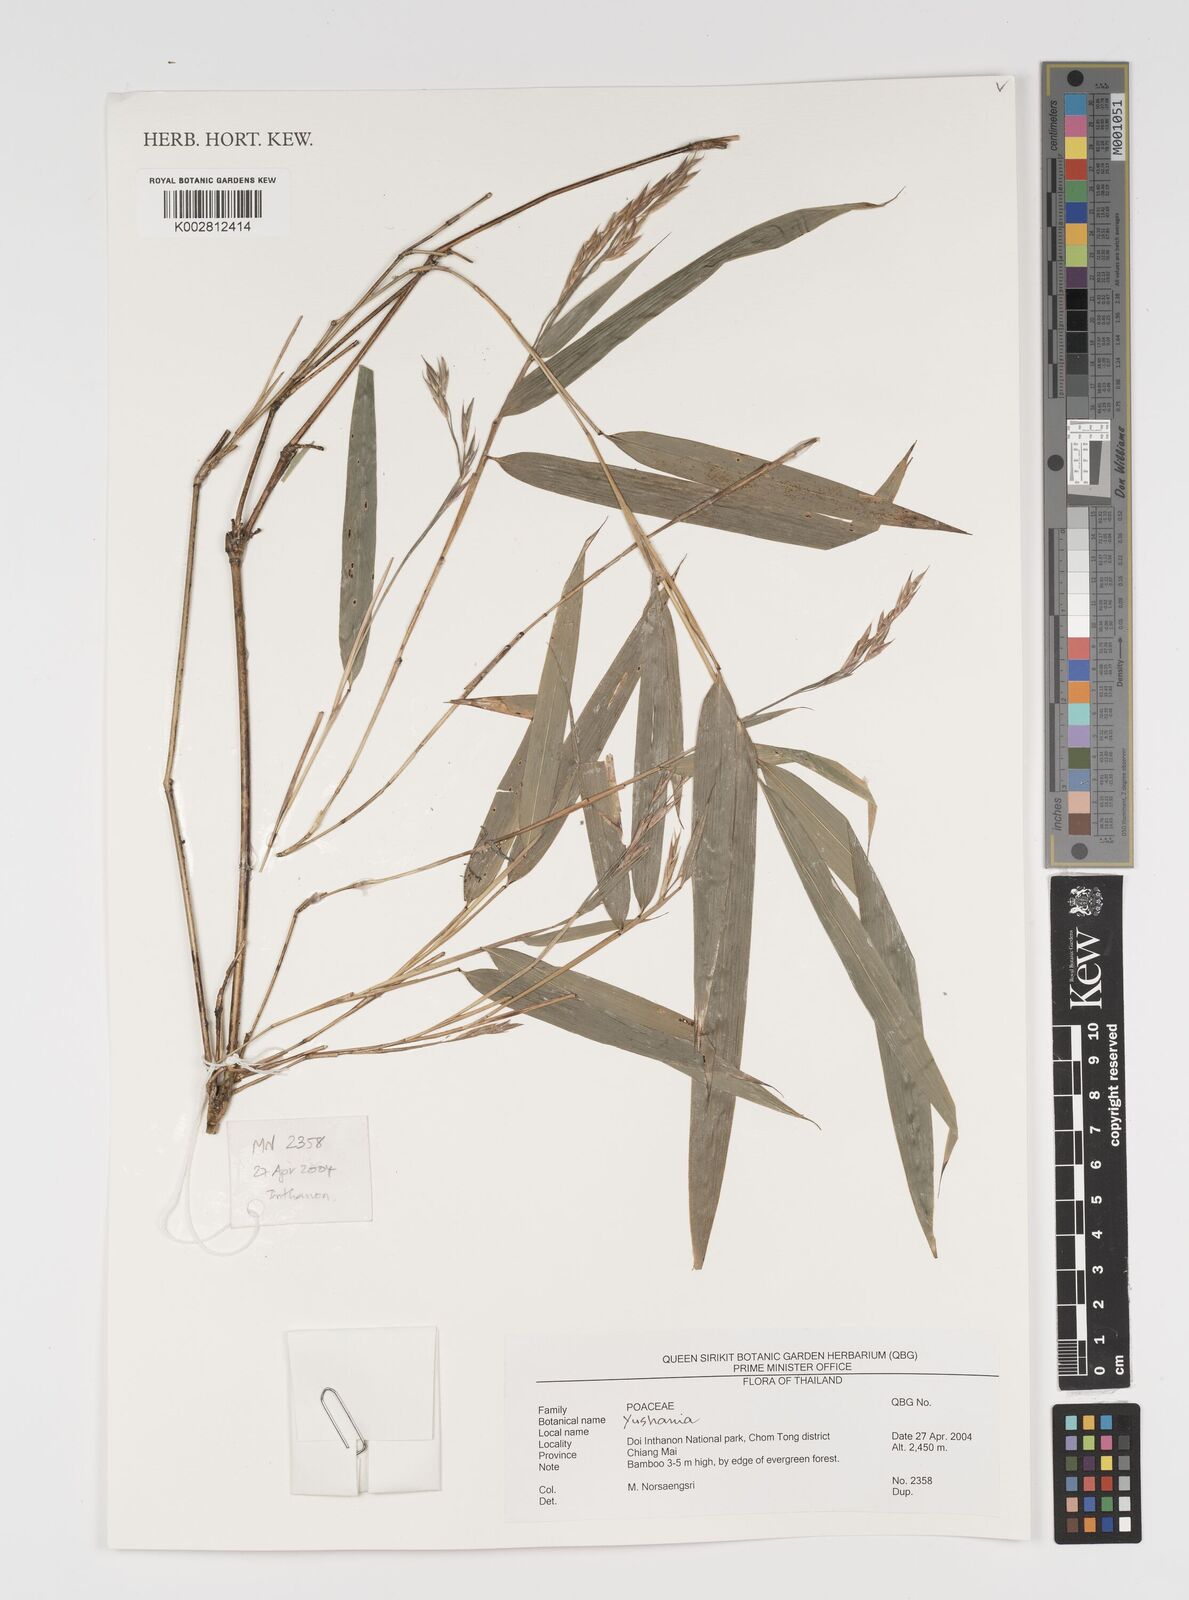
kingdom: Plantae
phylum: Tracheophyta
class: Liliopsida
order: Poales
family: Poaceae
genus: Yushania
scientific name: Yushania
